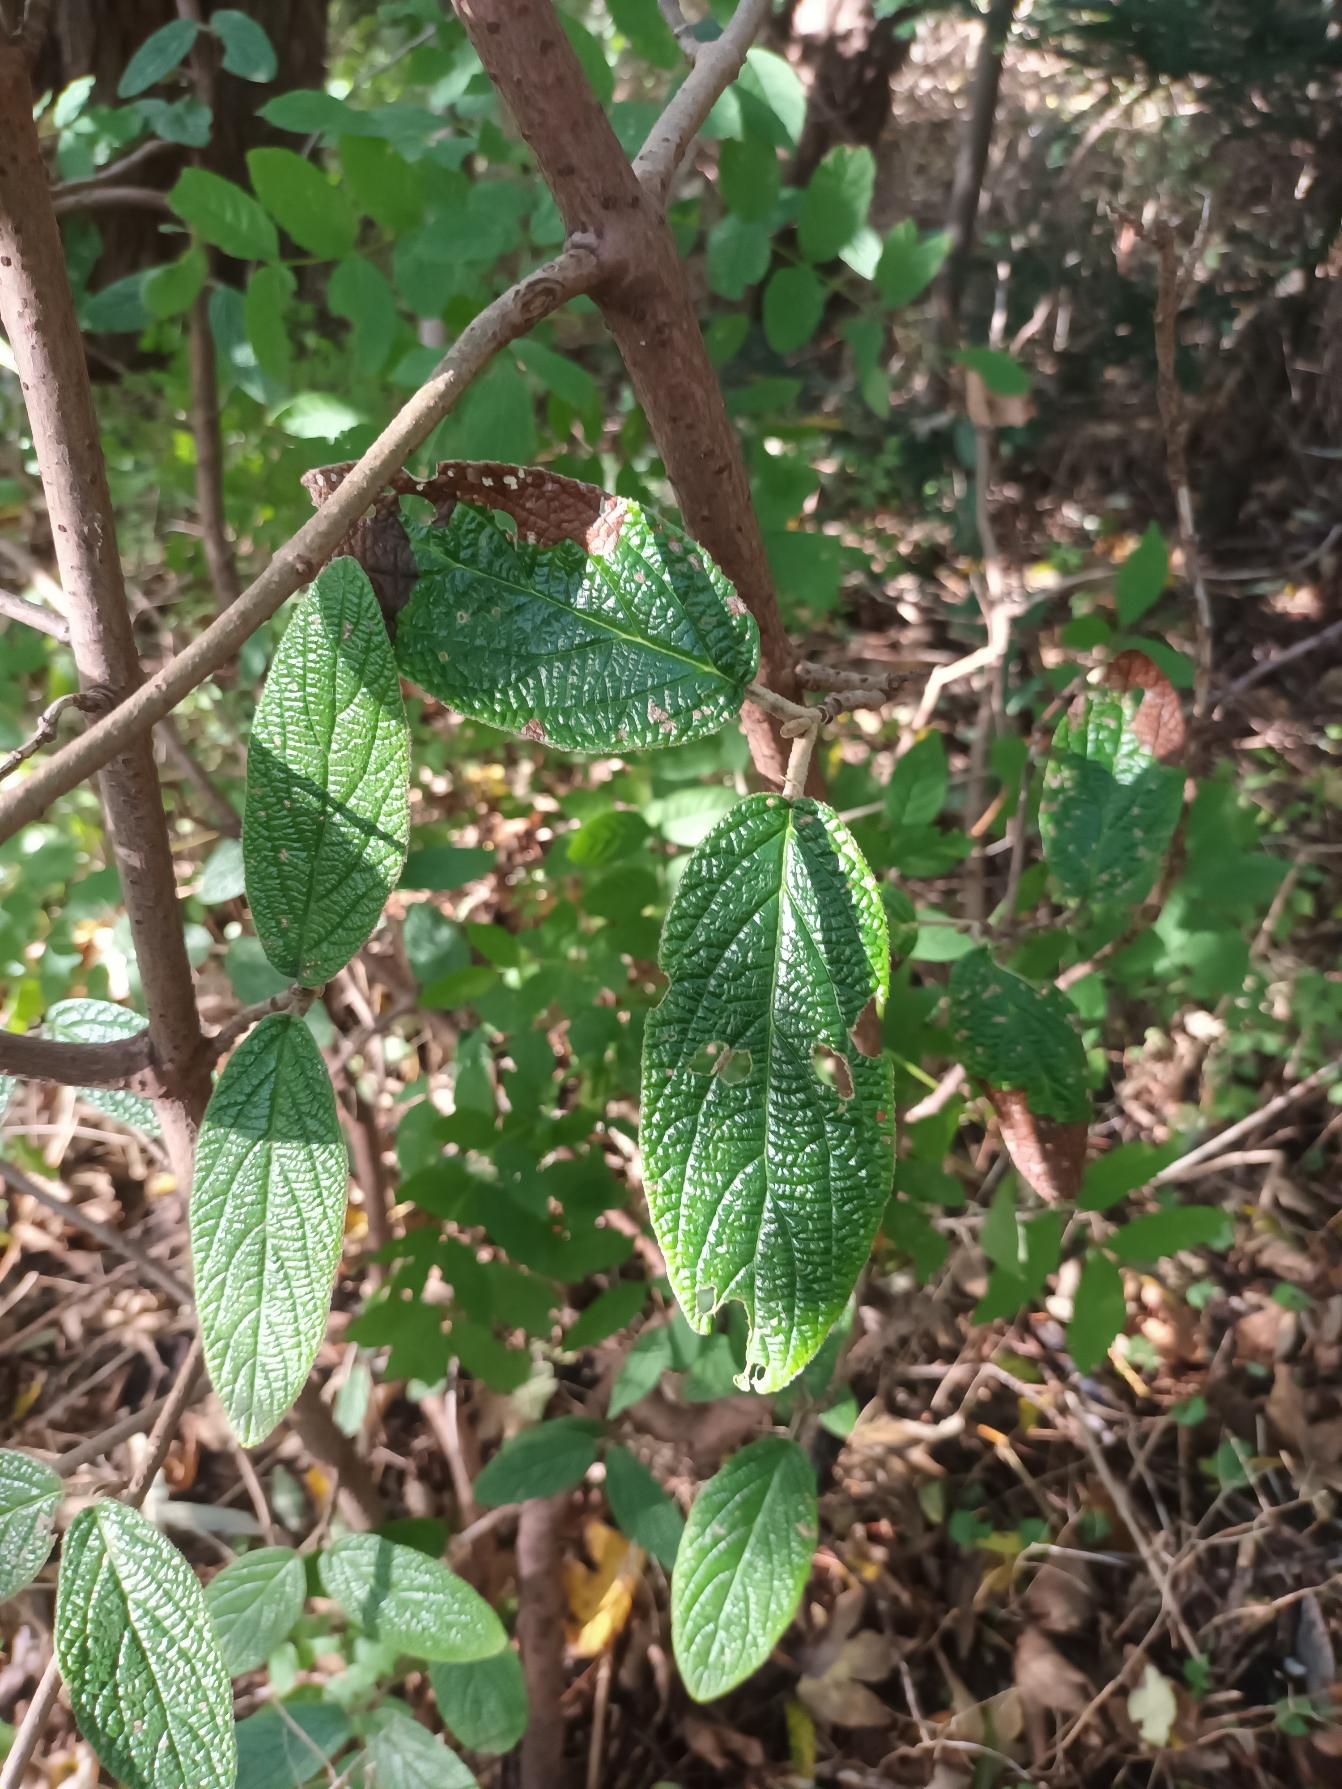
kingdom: Plantae
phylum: Tracheophyta
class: Magnoliopsida
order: Dipsacales
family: Viburnaceae
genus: Viburnum
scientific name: Viburnum rhytidophyllum
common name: Rynkeblad
